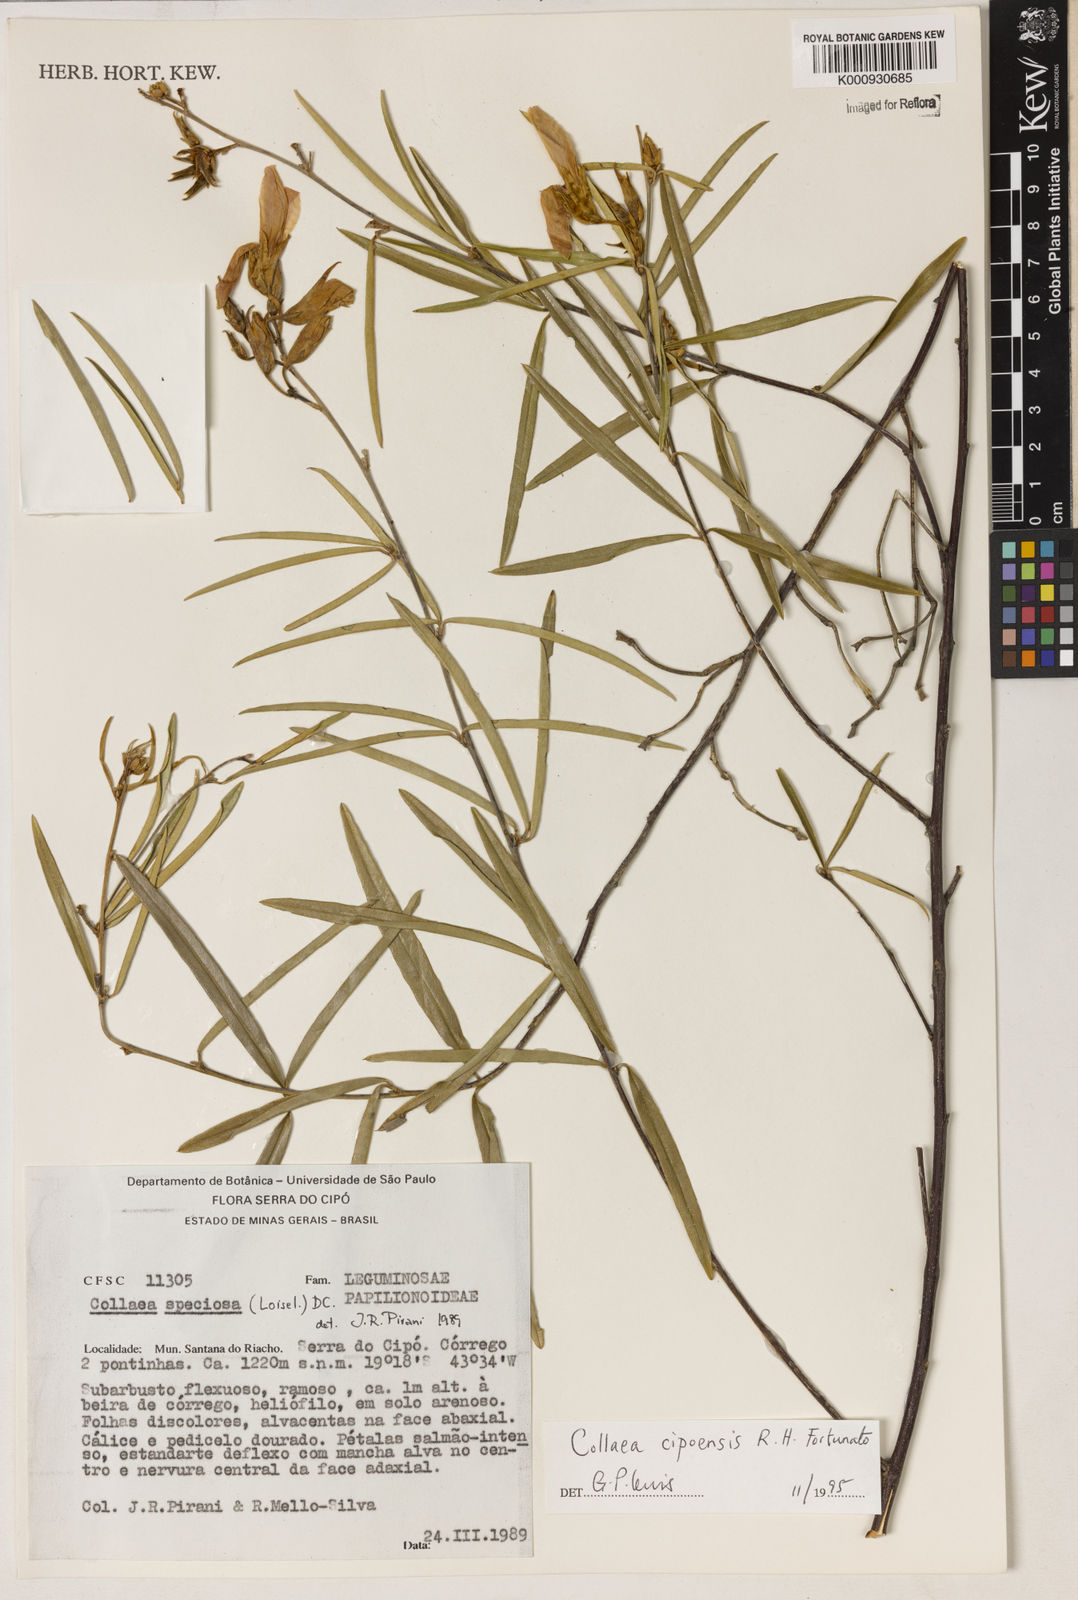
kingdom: Plantae
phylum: Tracheophyta
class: Liliopsida
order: Asparagales
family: Orchidaceae
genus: Pelexia
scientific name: Pelexia
